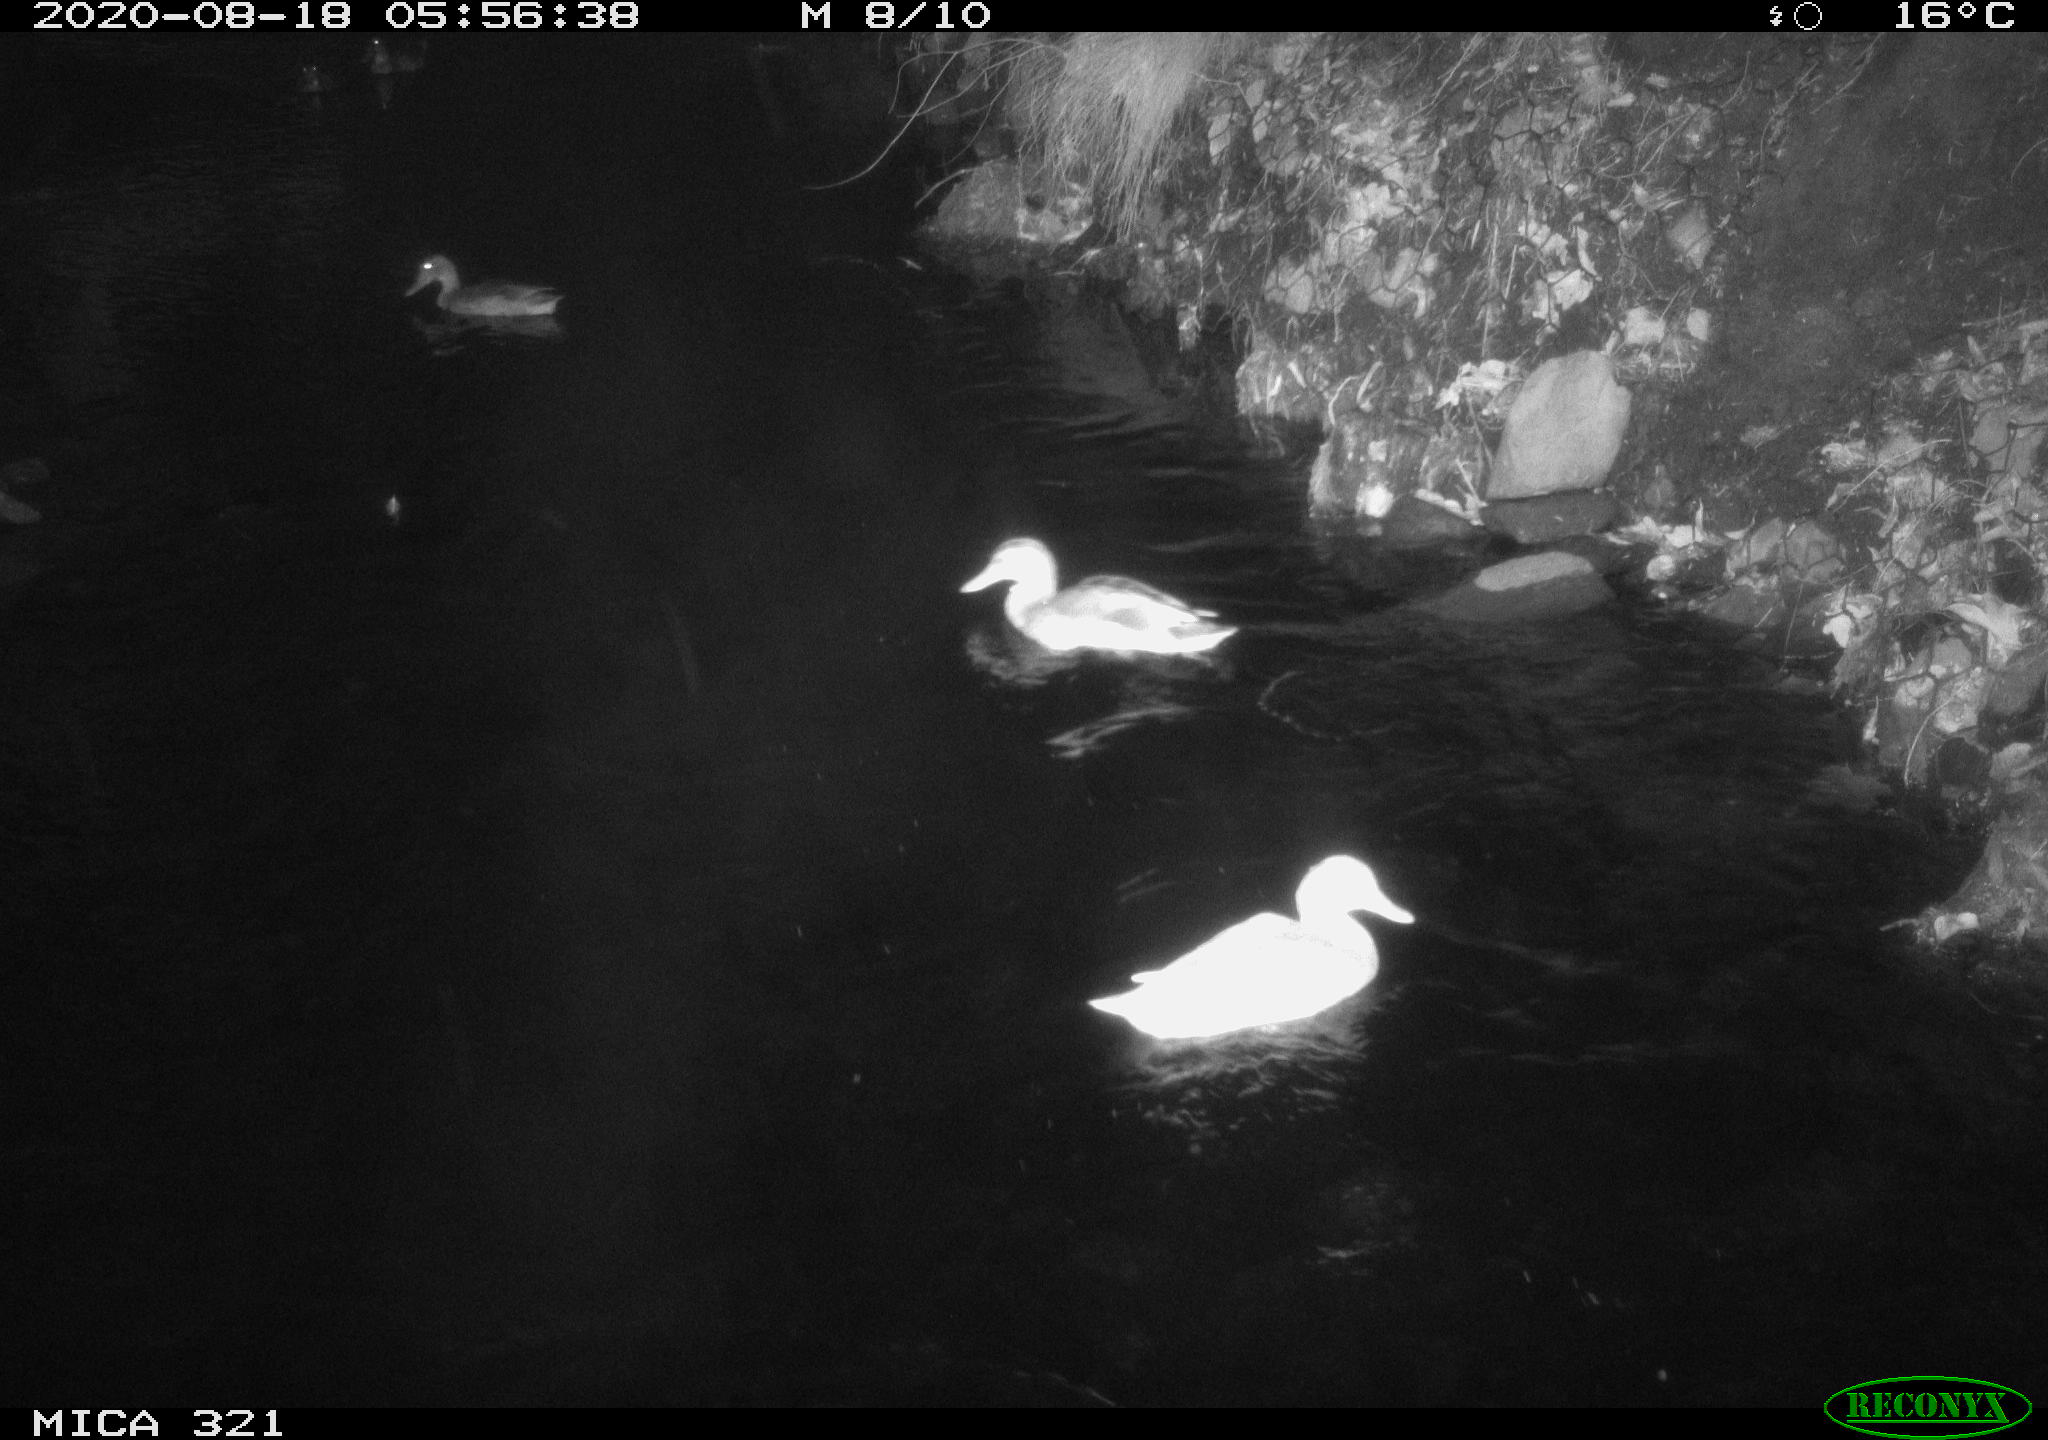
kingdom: Animalia
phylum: Chordata
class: Aves
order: Anseriformes
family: Anatidae
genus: Anas
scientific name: Anas platyrhynchos
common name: Mallard
